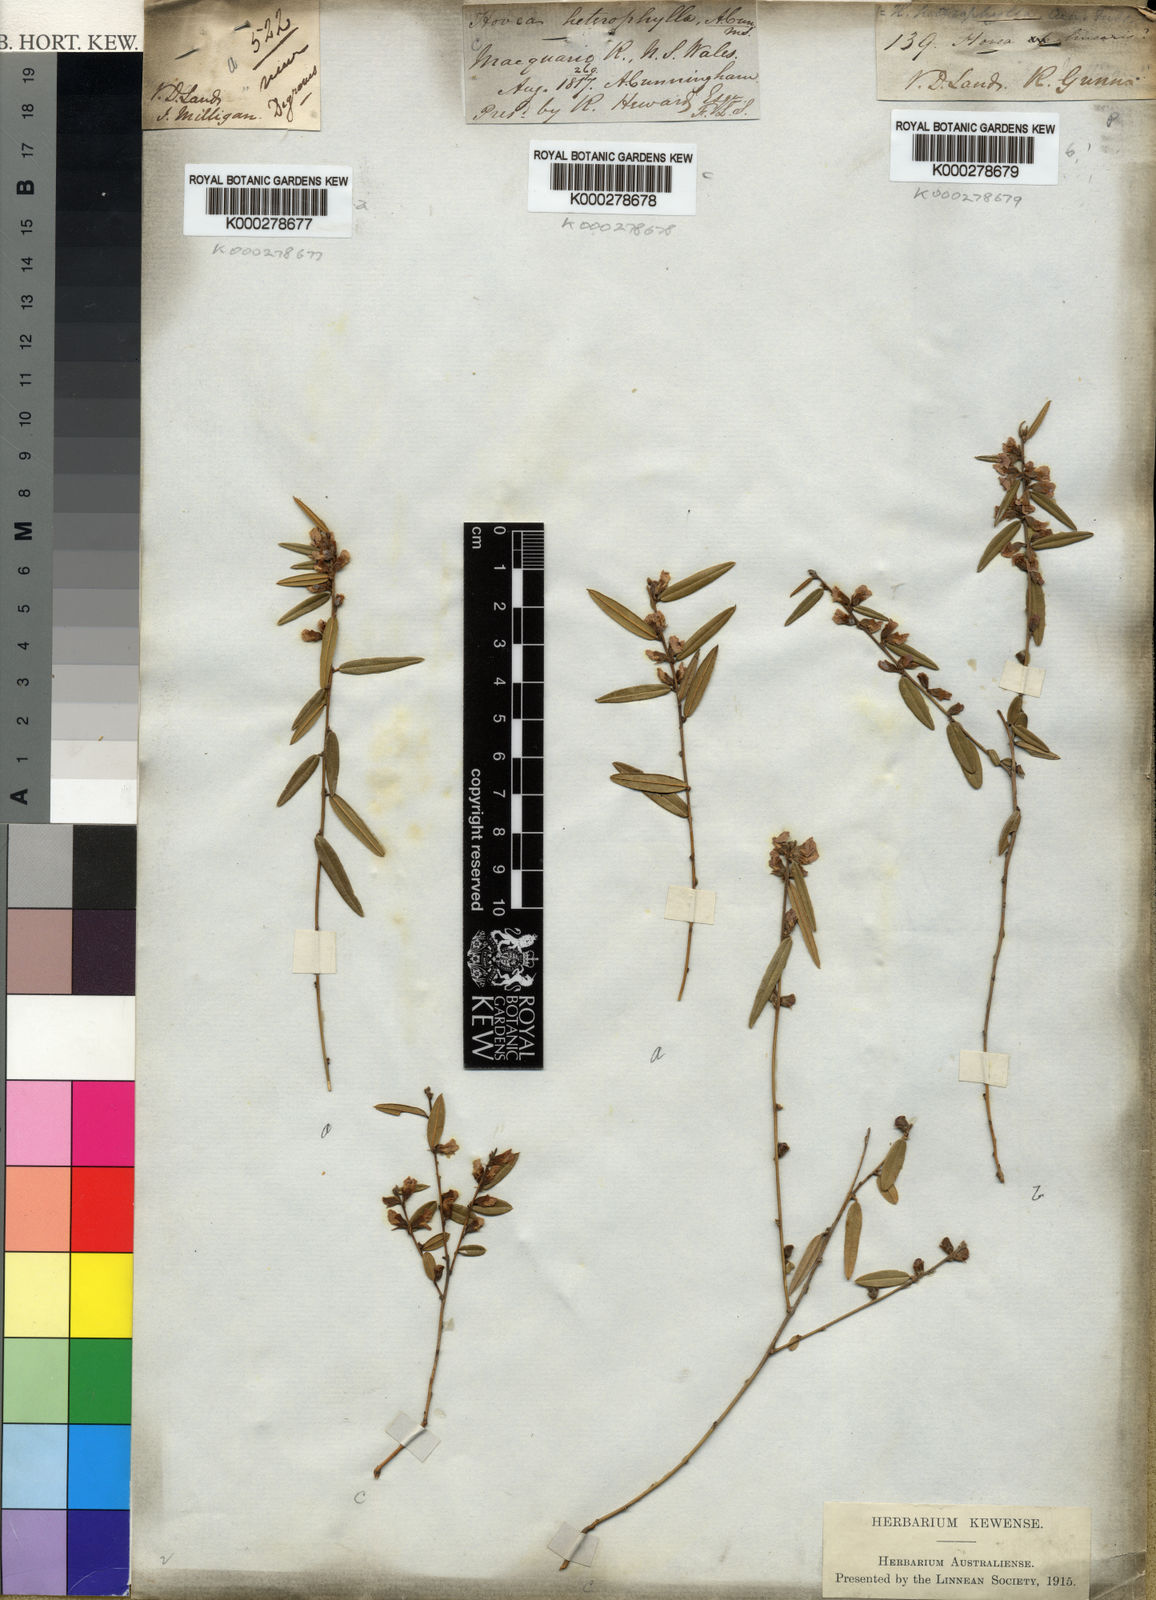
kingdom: Plantae
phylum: Tracheophyta
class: Magnoliopsida
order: Fabales
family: Fabaceae
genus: Hovea
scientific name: Hovea heterophylla
